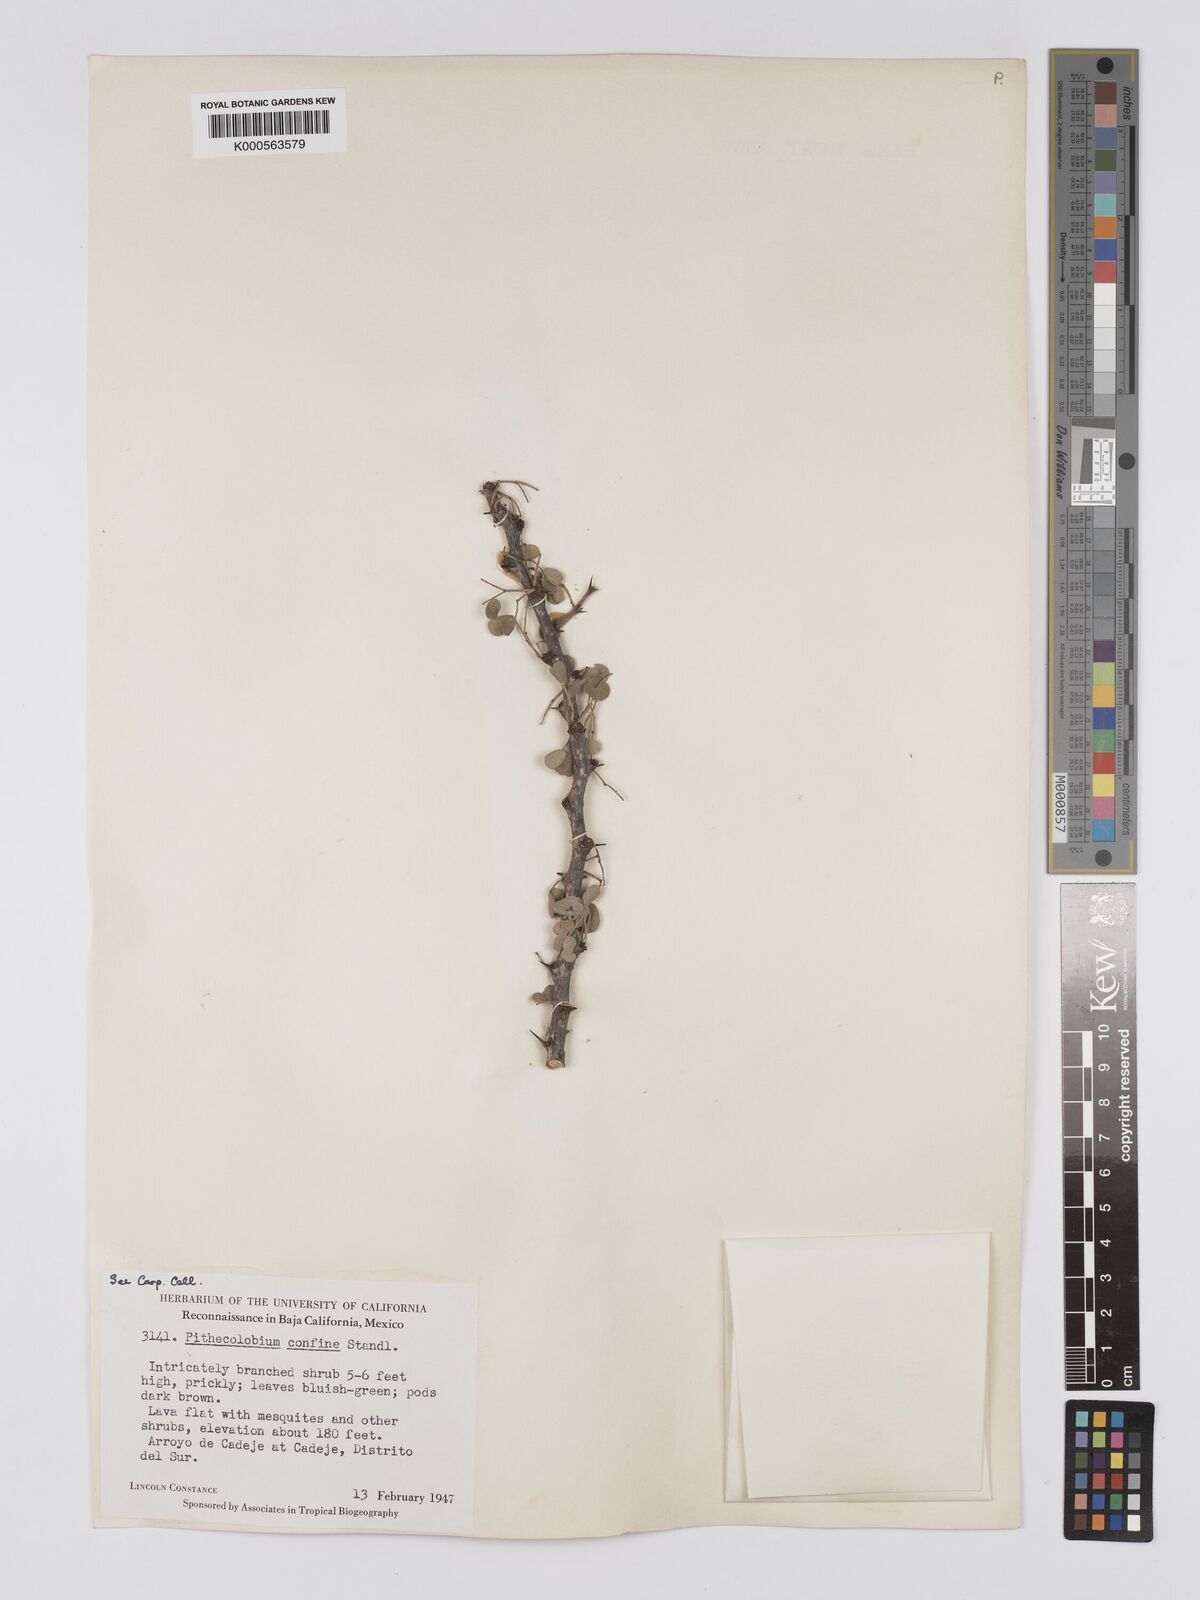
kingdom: Plantae
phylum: Tracheophyta
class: Magnoliopsida
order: Fabales
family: Fabaceae
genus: Chloroleucon
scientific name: Chloroleucon
